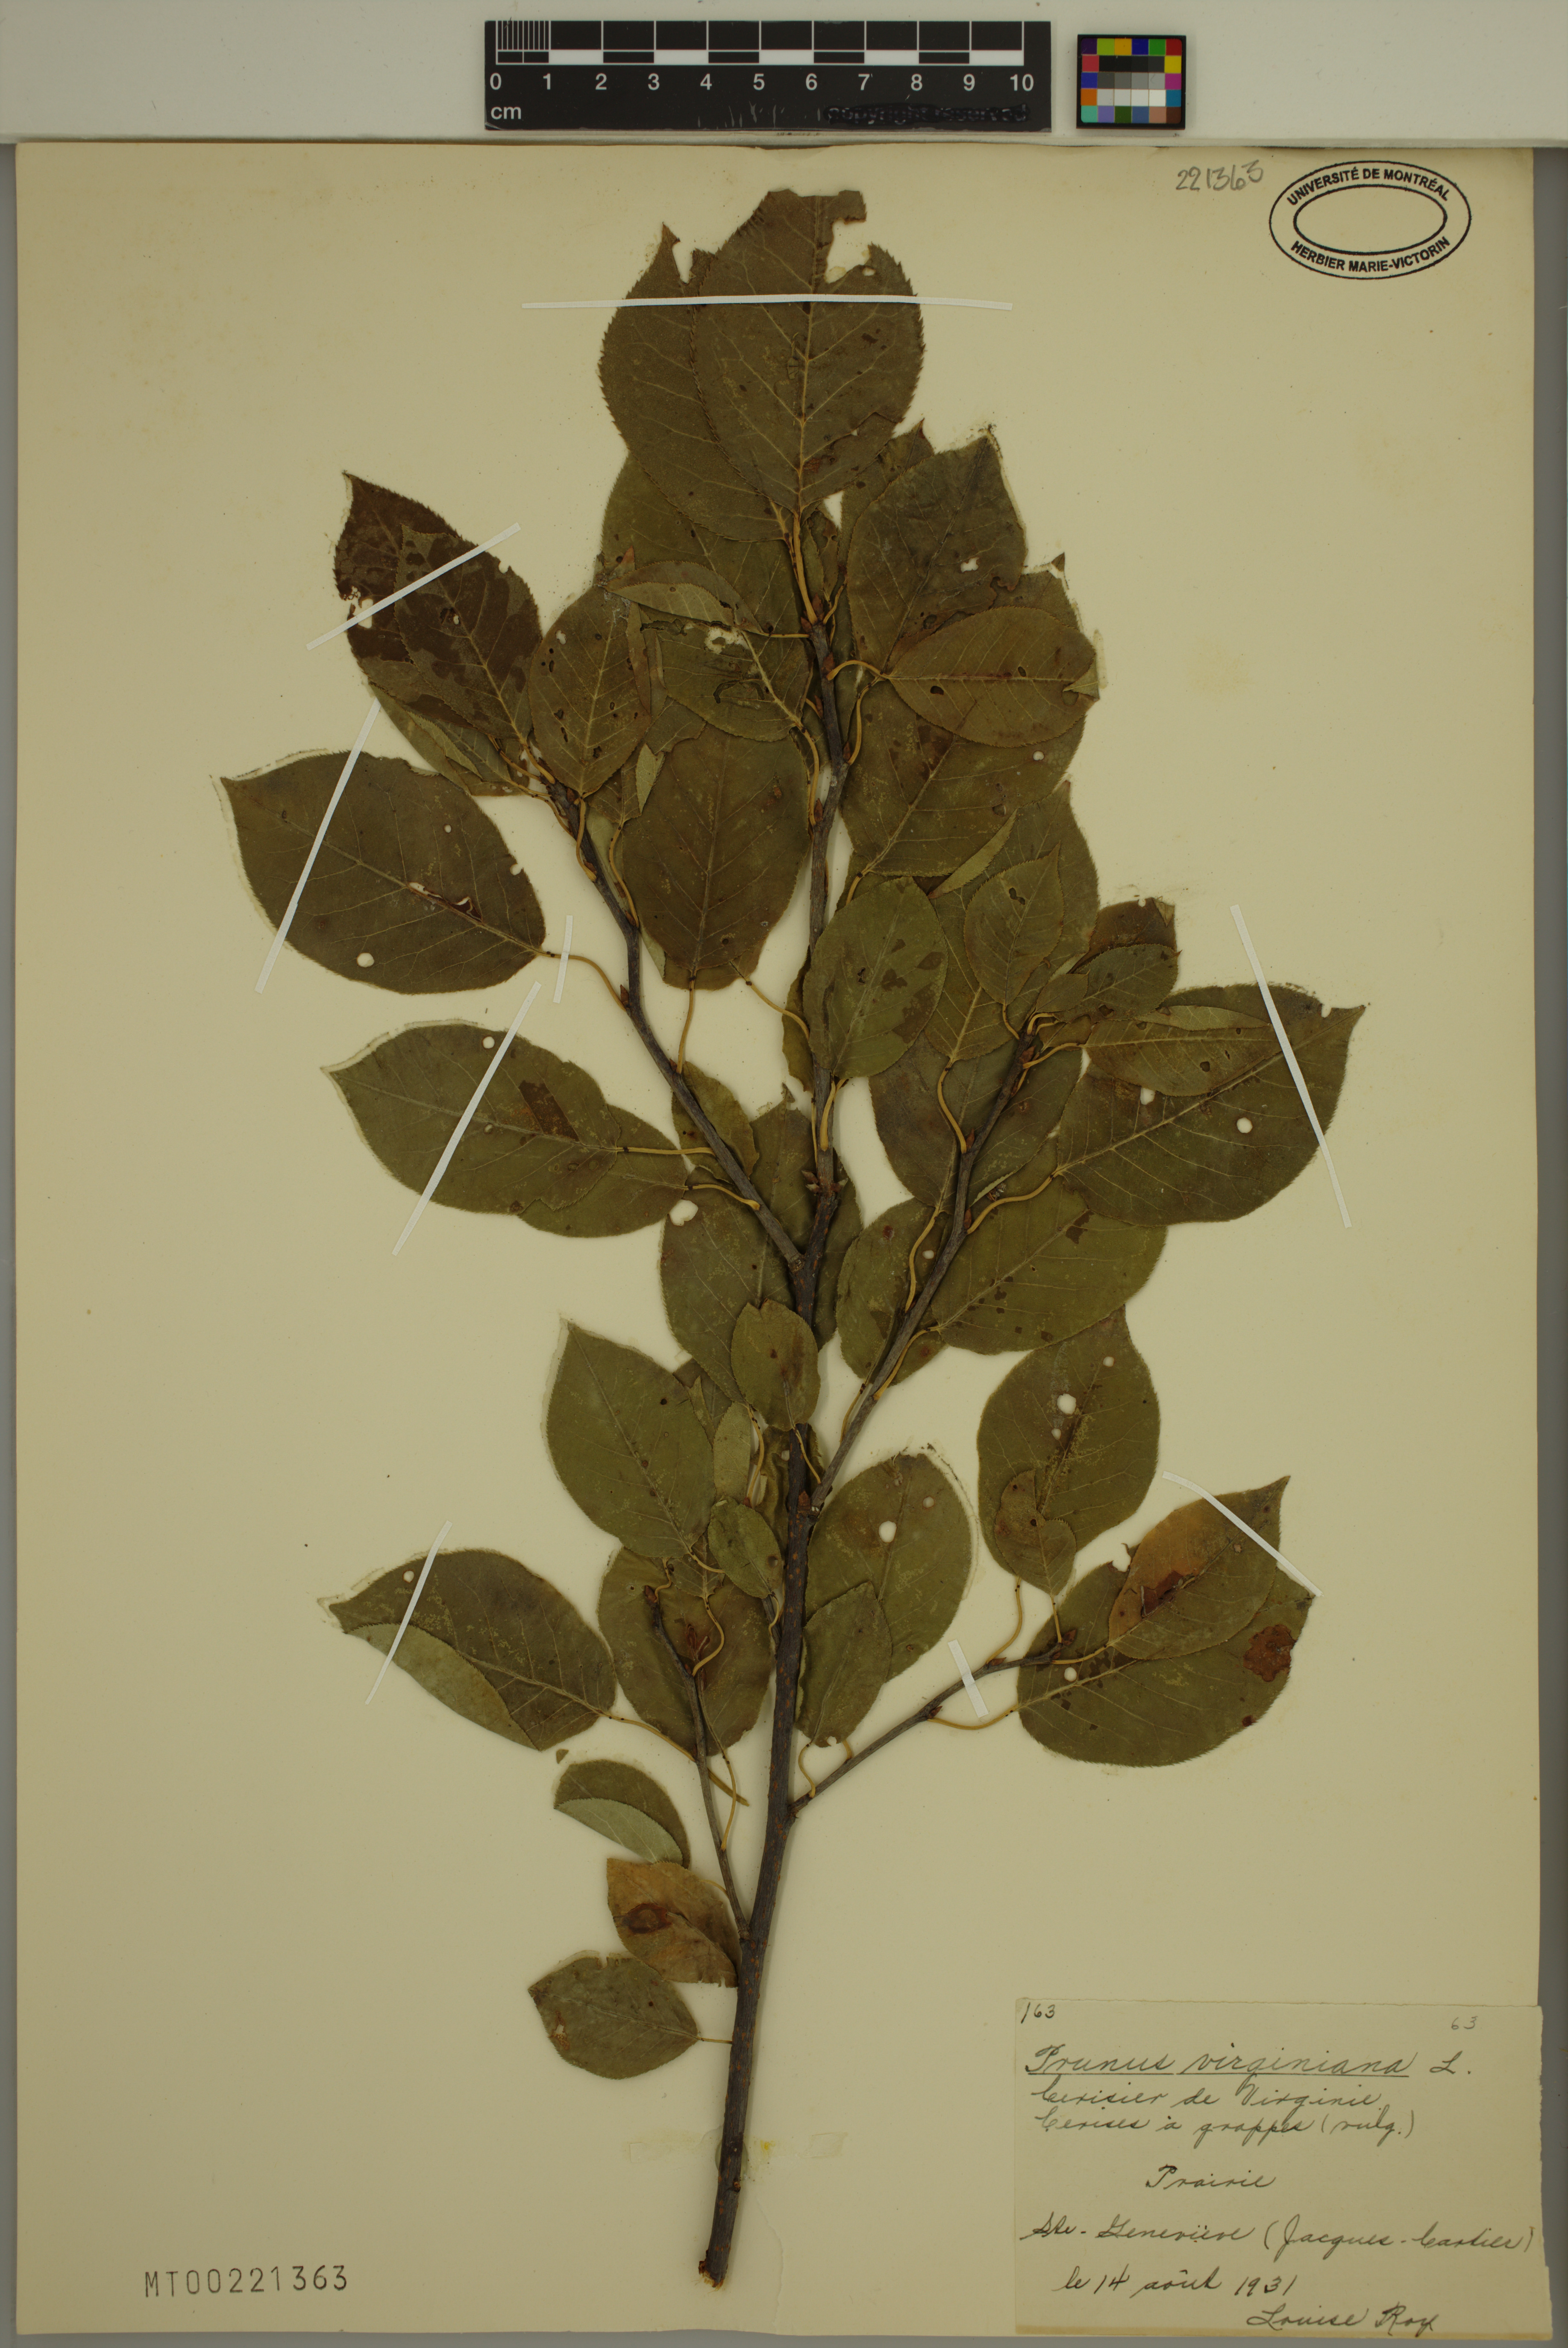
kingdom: Plantae
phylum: Tracheophyta
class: Magnoliopsida
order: Rosales
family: Rosaceae
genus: Prunus
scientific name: Prunus virginiana
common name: Chokecherry
